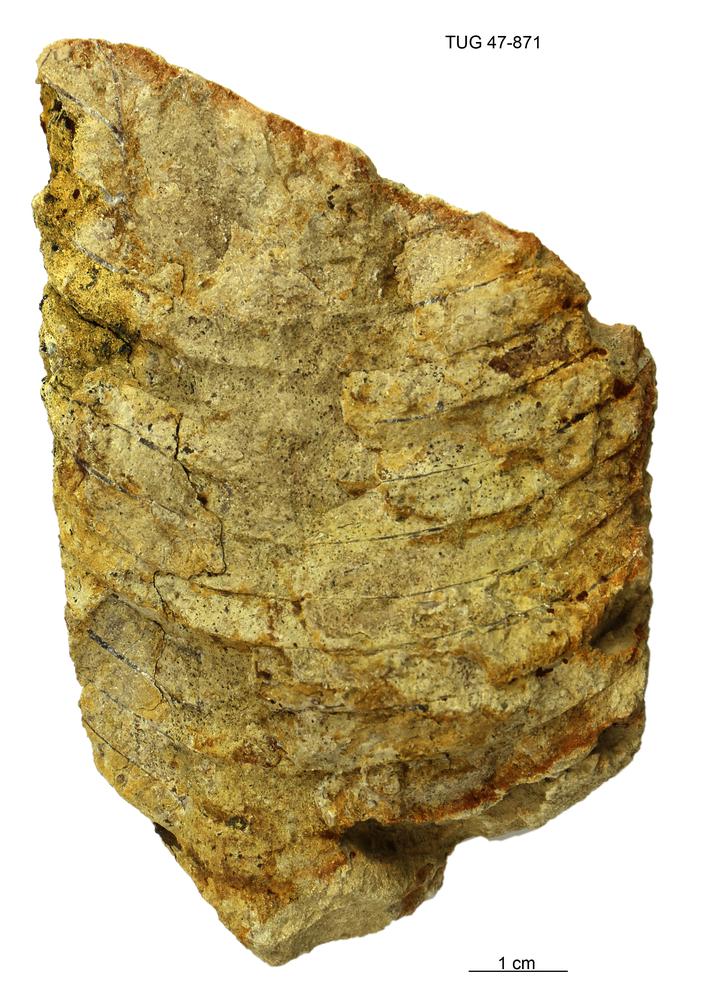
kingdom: Animalia
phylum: Mollusca
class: Cephalopoda
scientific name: Cephalopoda
